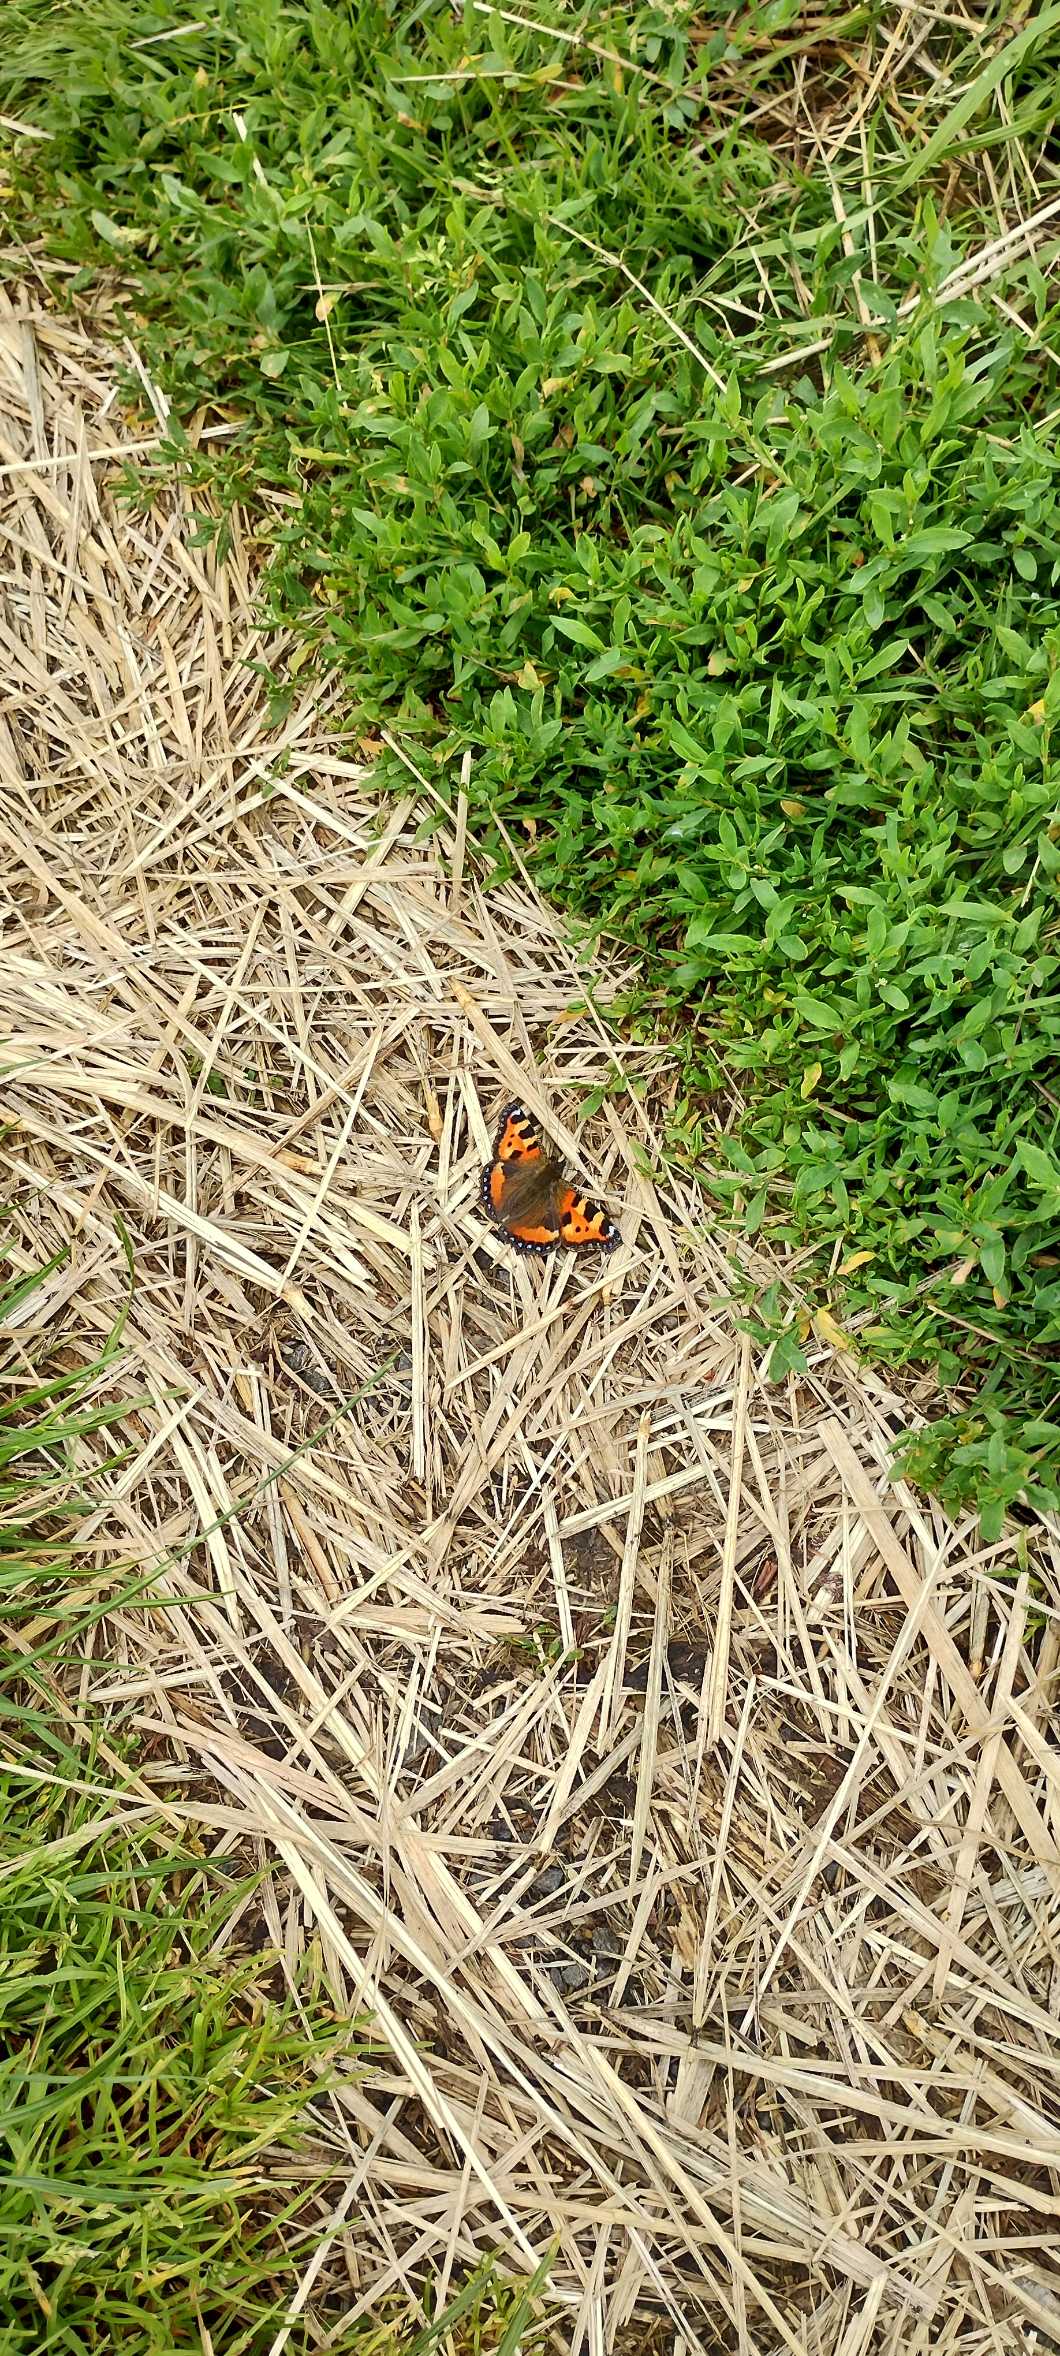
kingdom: Animalia
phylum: Arthropoda
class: Insecta
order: Lepidoptera
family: Nymphalidae
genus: Aglais
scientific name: Aglais urticae
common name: Nældens takvinge
